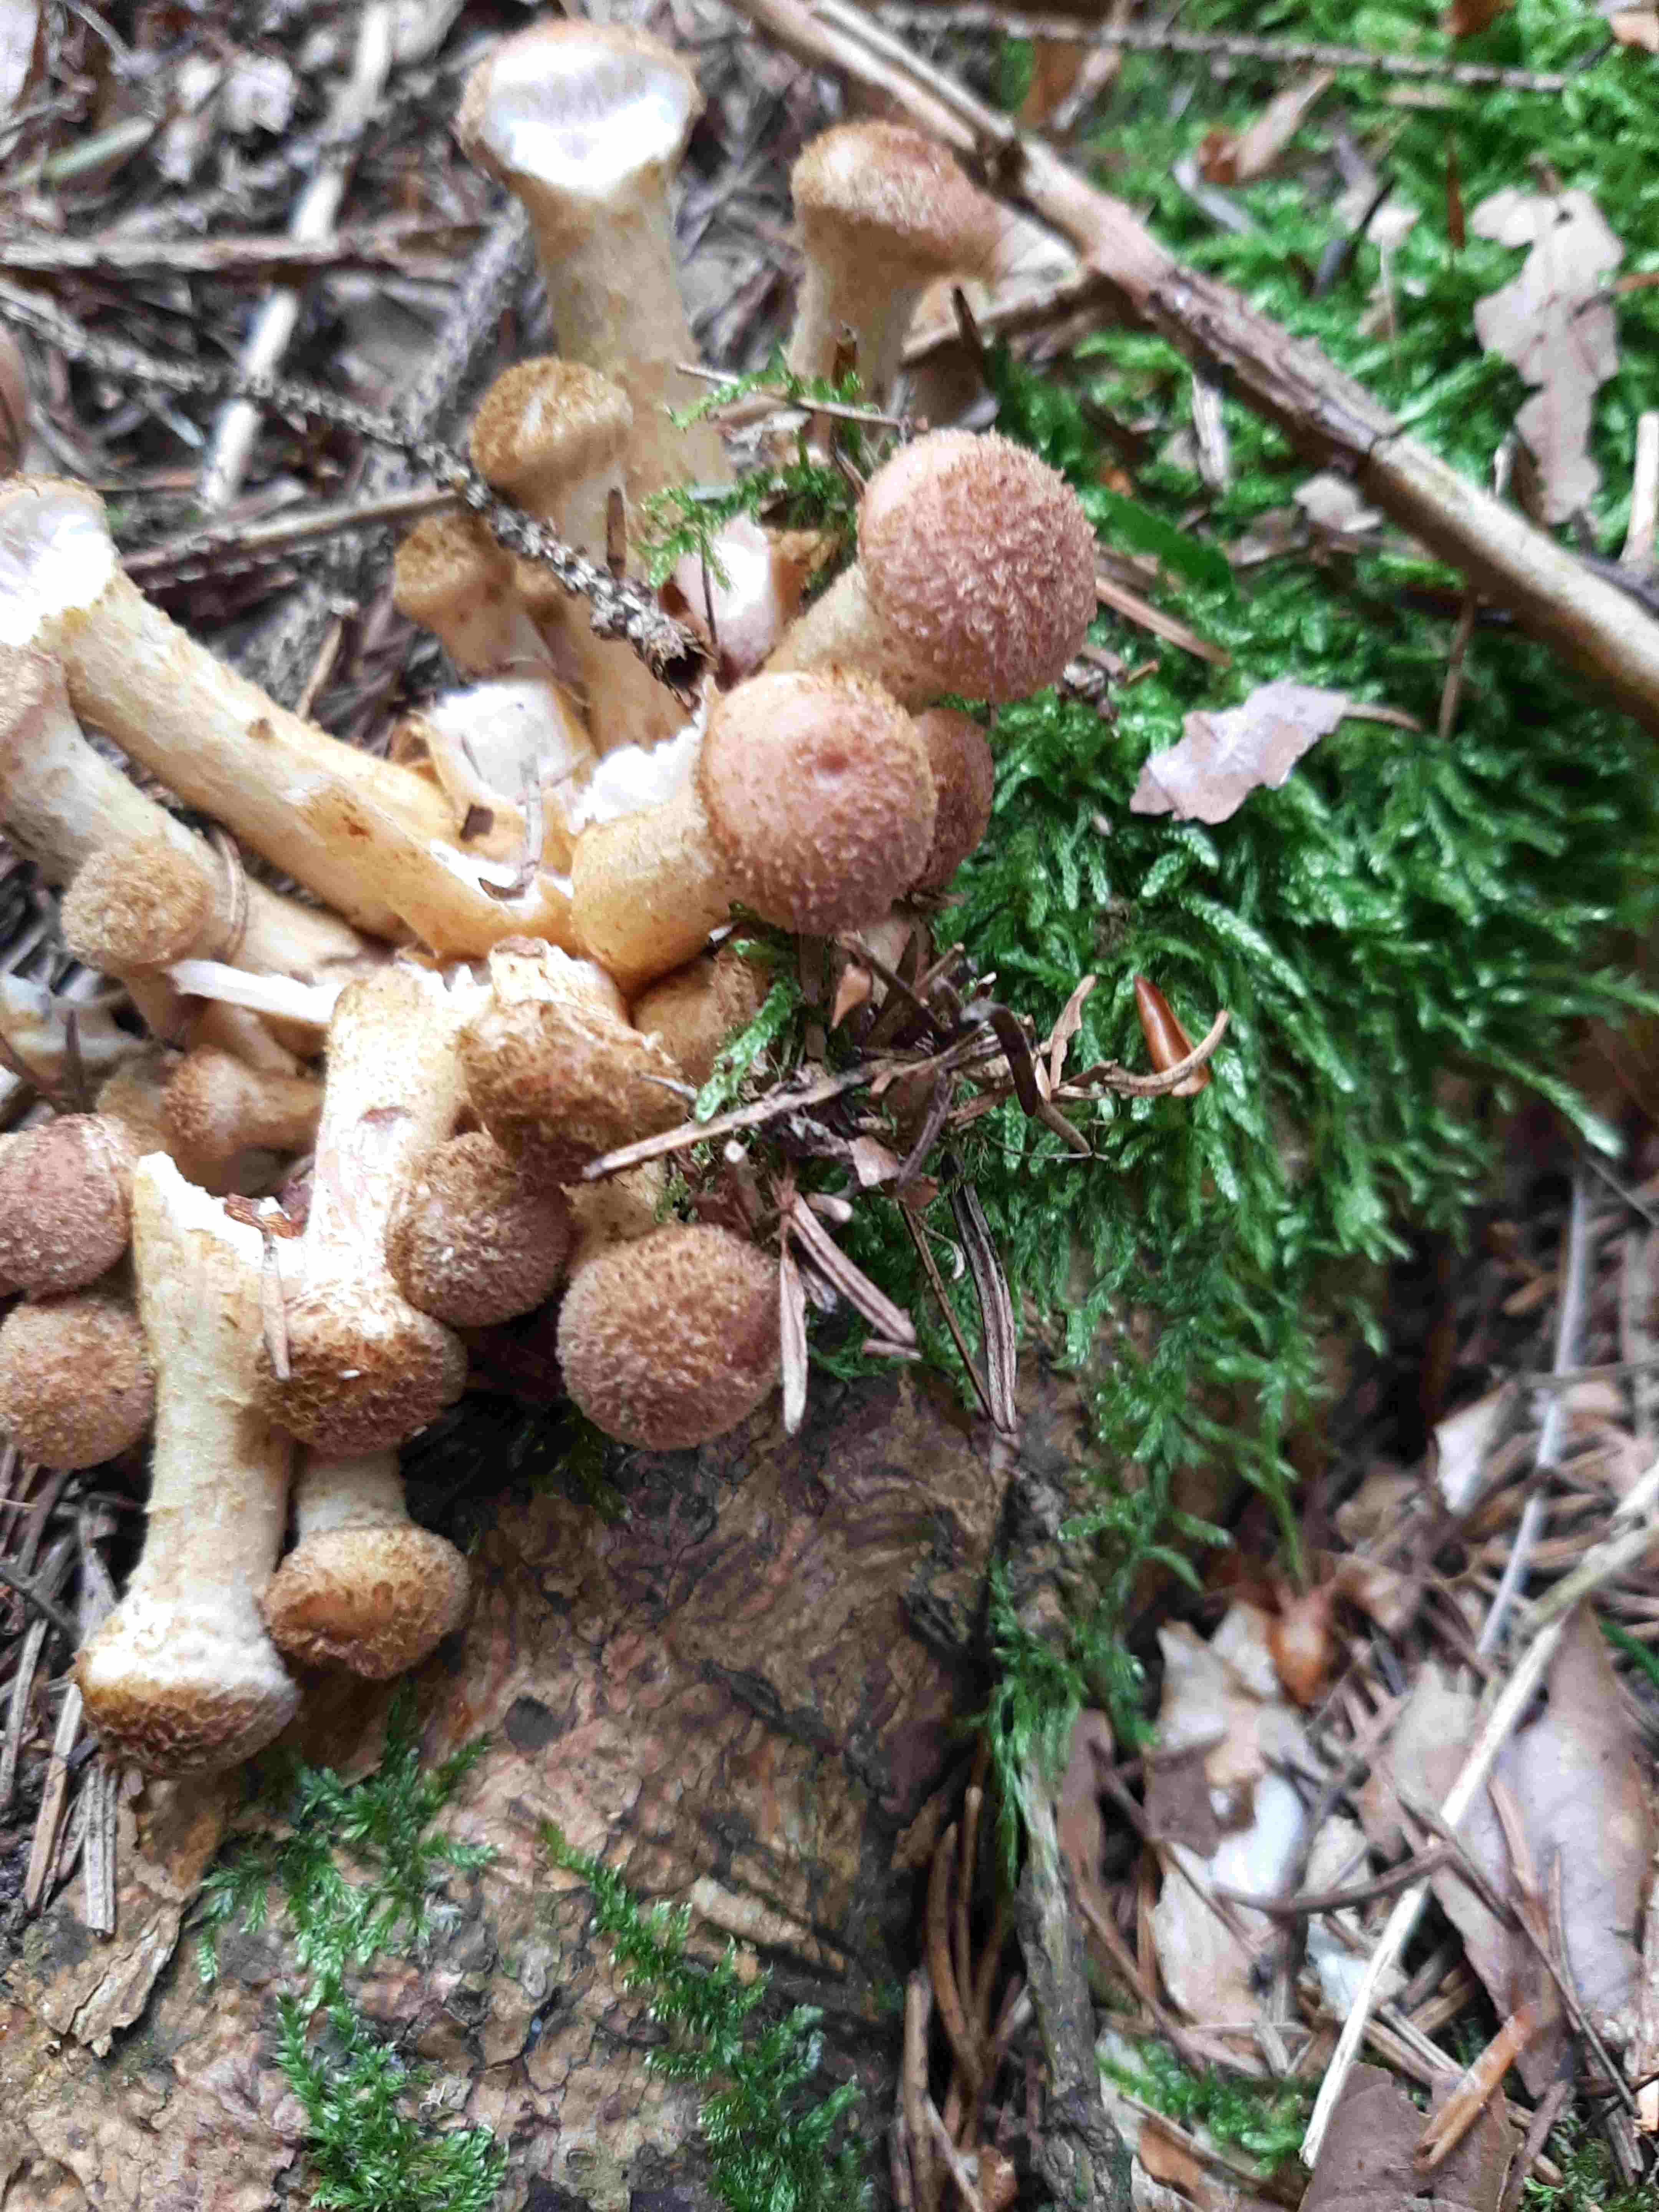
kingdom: Fungi
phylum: Basidiomycota
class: Agaricomycetes
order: Agaricales
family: Physalacriaceae
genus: Armillaria
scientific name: Armillaria ostoyae
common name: mørk honningsvamp
